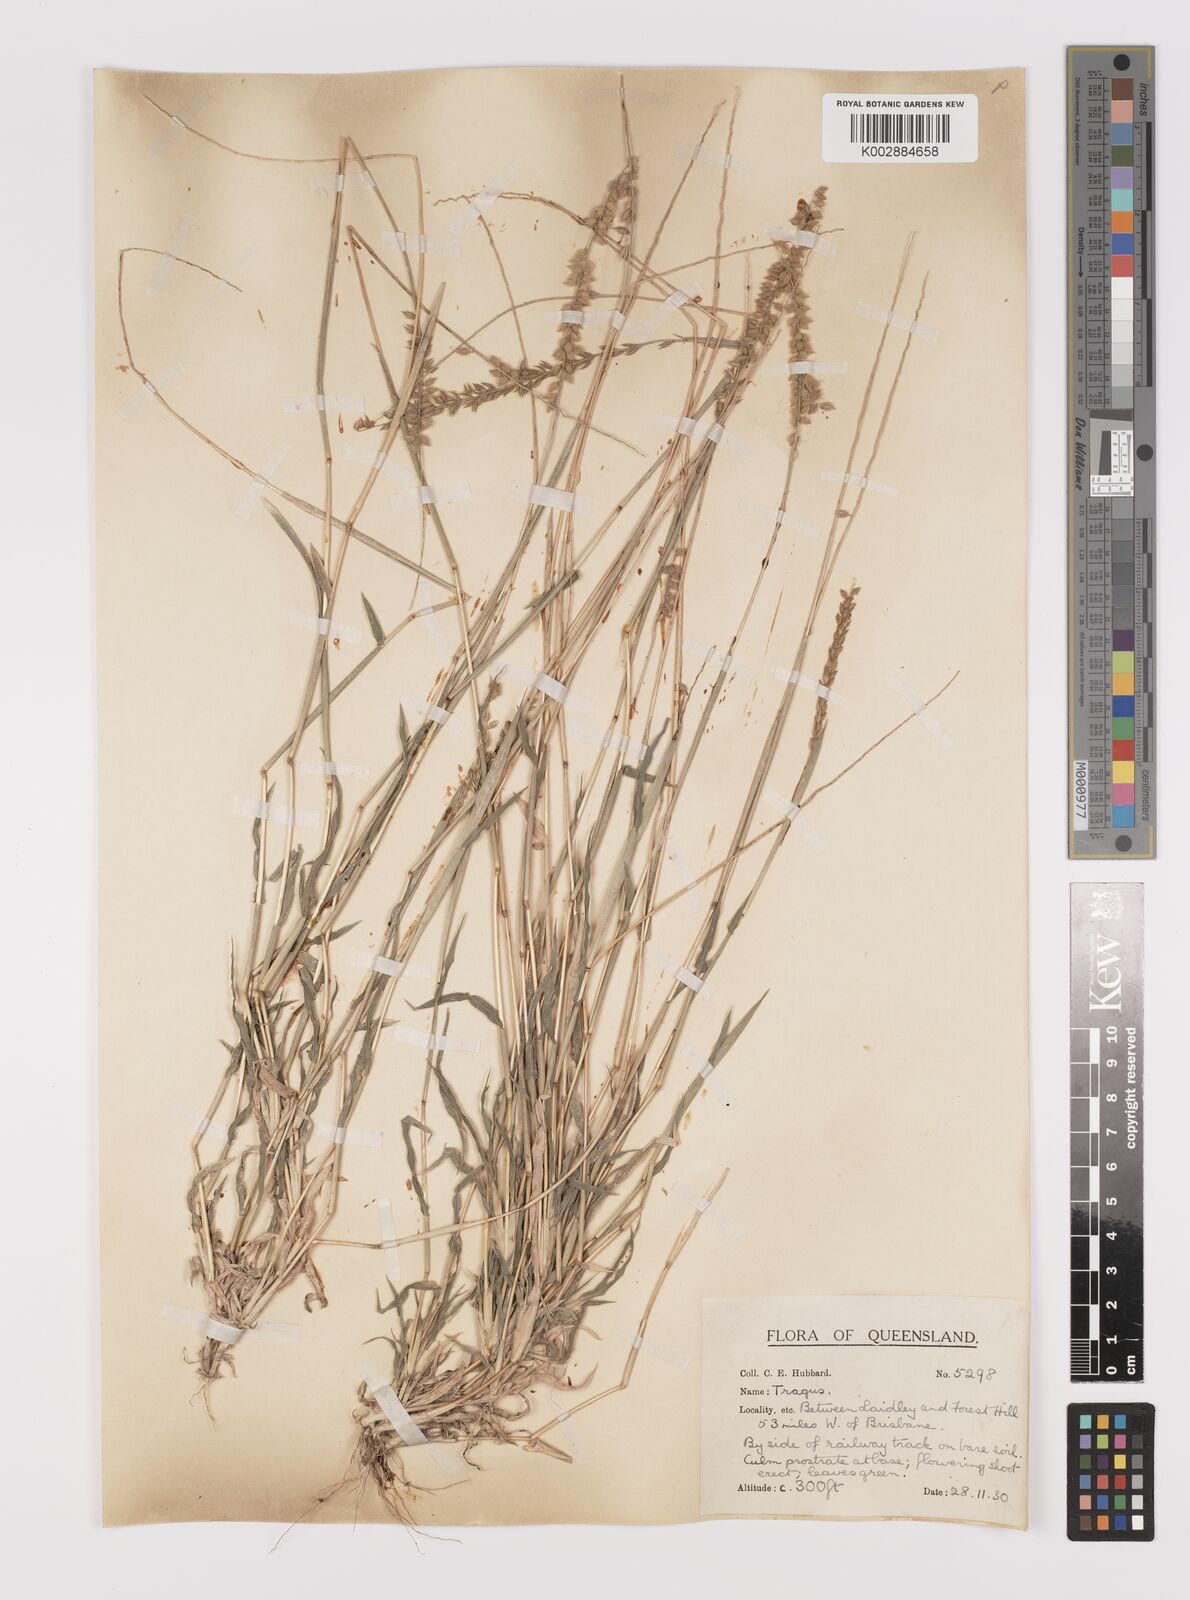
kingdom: Plantae
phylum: Tracheophyta
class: Liliopsida
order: Poales
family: Poaceae
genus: Tragus
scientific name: Tragus australianus
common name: Australian bur-grass
